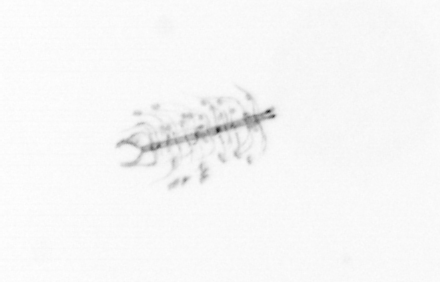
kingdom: Chromista
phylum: Ochrophyta
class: Bacillariophyceae
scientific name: Bacillariophyceae
